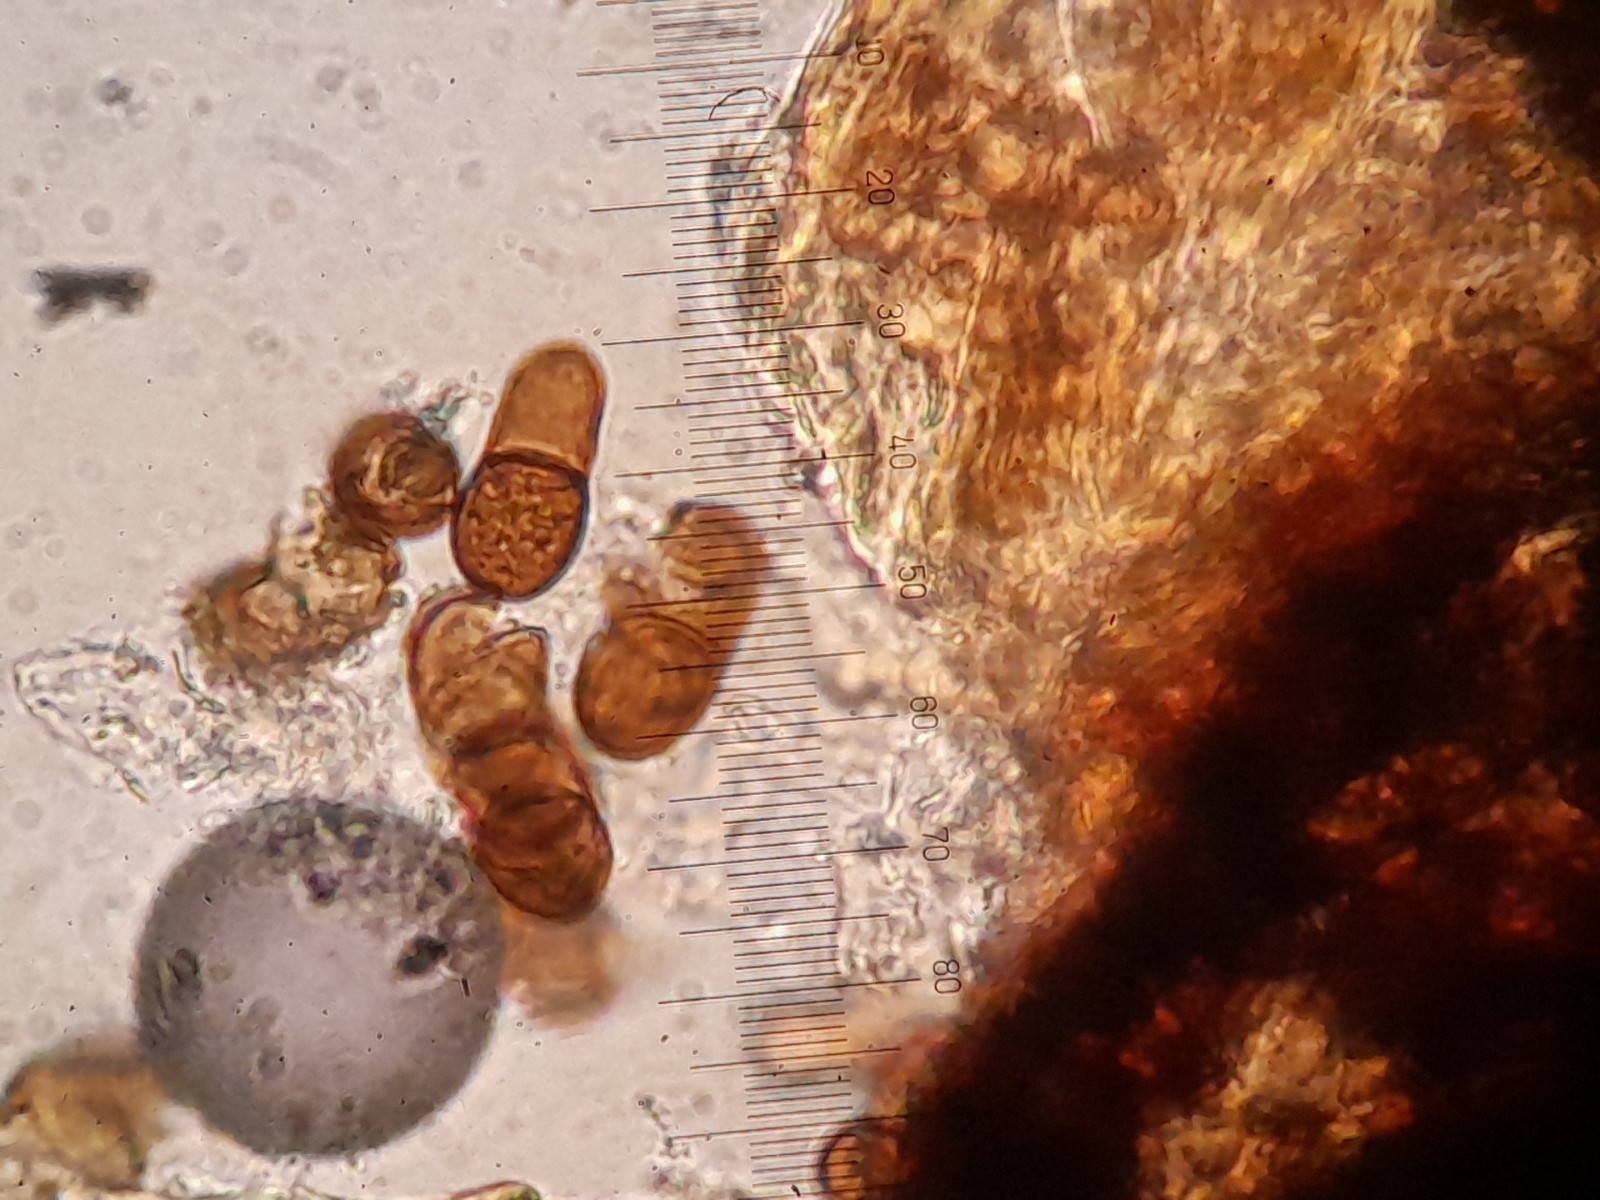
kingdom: Fungi
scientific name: Fungi
